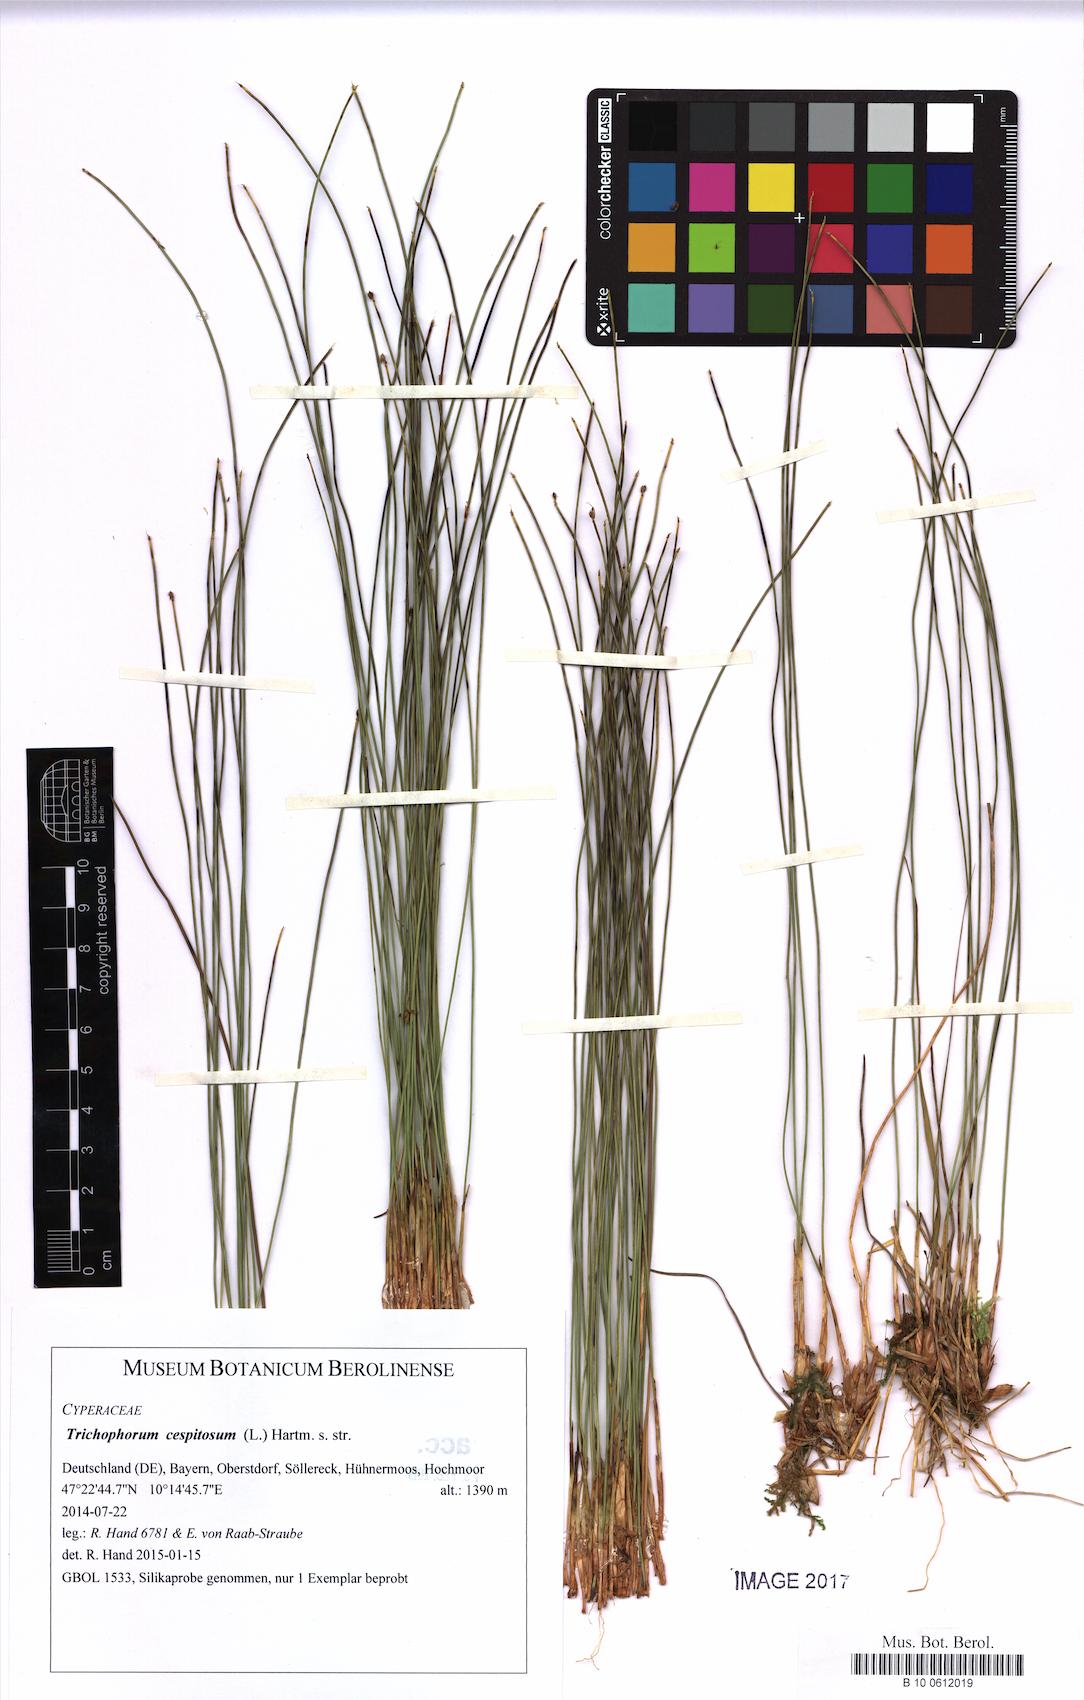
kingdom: Plantae
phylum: Tracheophyta
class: Liliopsida
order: Poales
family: Cyperaceae
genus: Trichophorum
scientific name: Trichophorum cespitosum
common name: Cespitose bulrush
